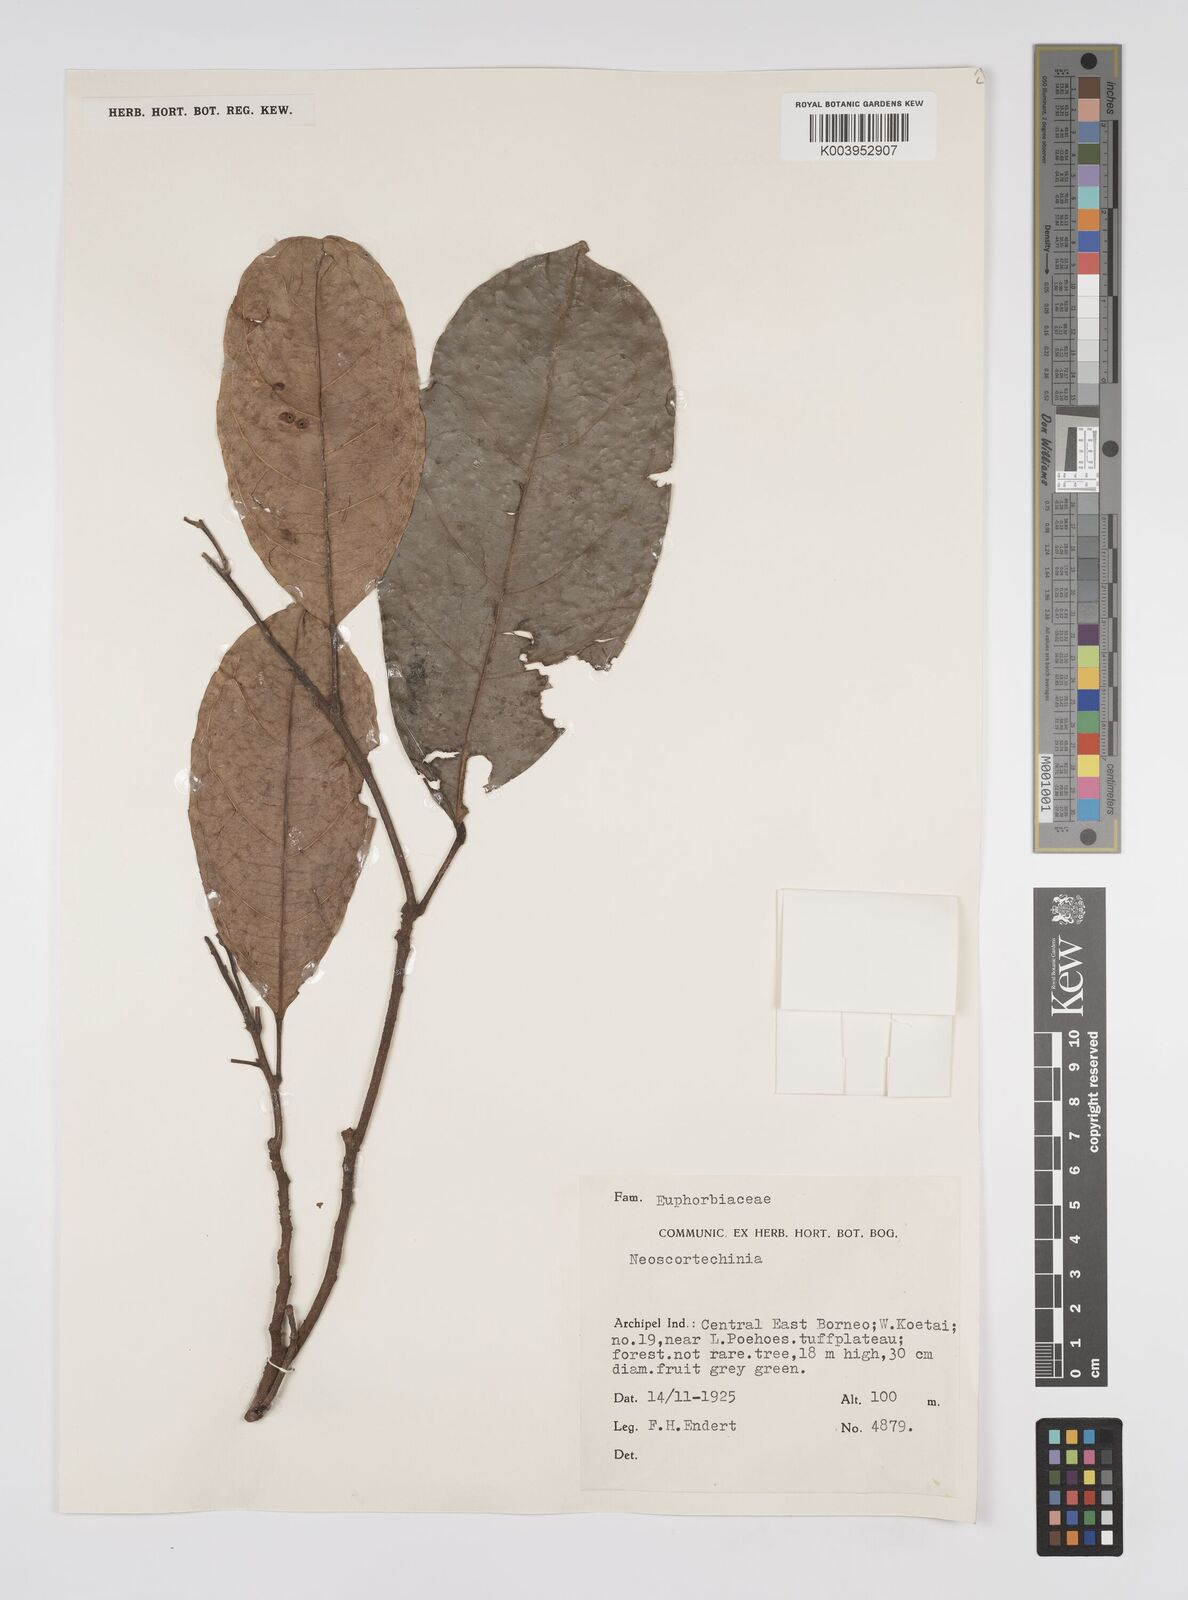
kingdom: Plantae
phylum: Tracheophyta
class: Magnoliopsida
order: Malpighiales
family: Euphorbiaceae
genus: Neoscortechinia
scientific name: Neoscortechinia philippinensis
